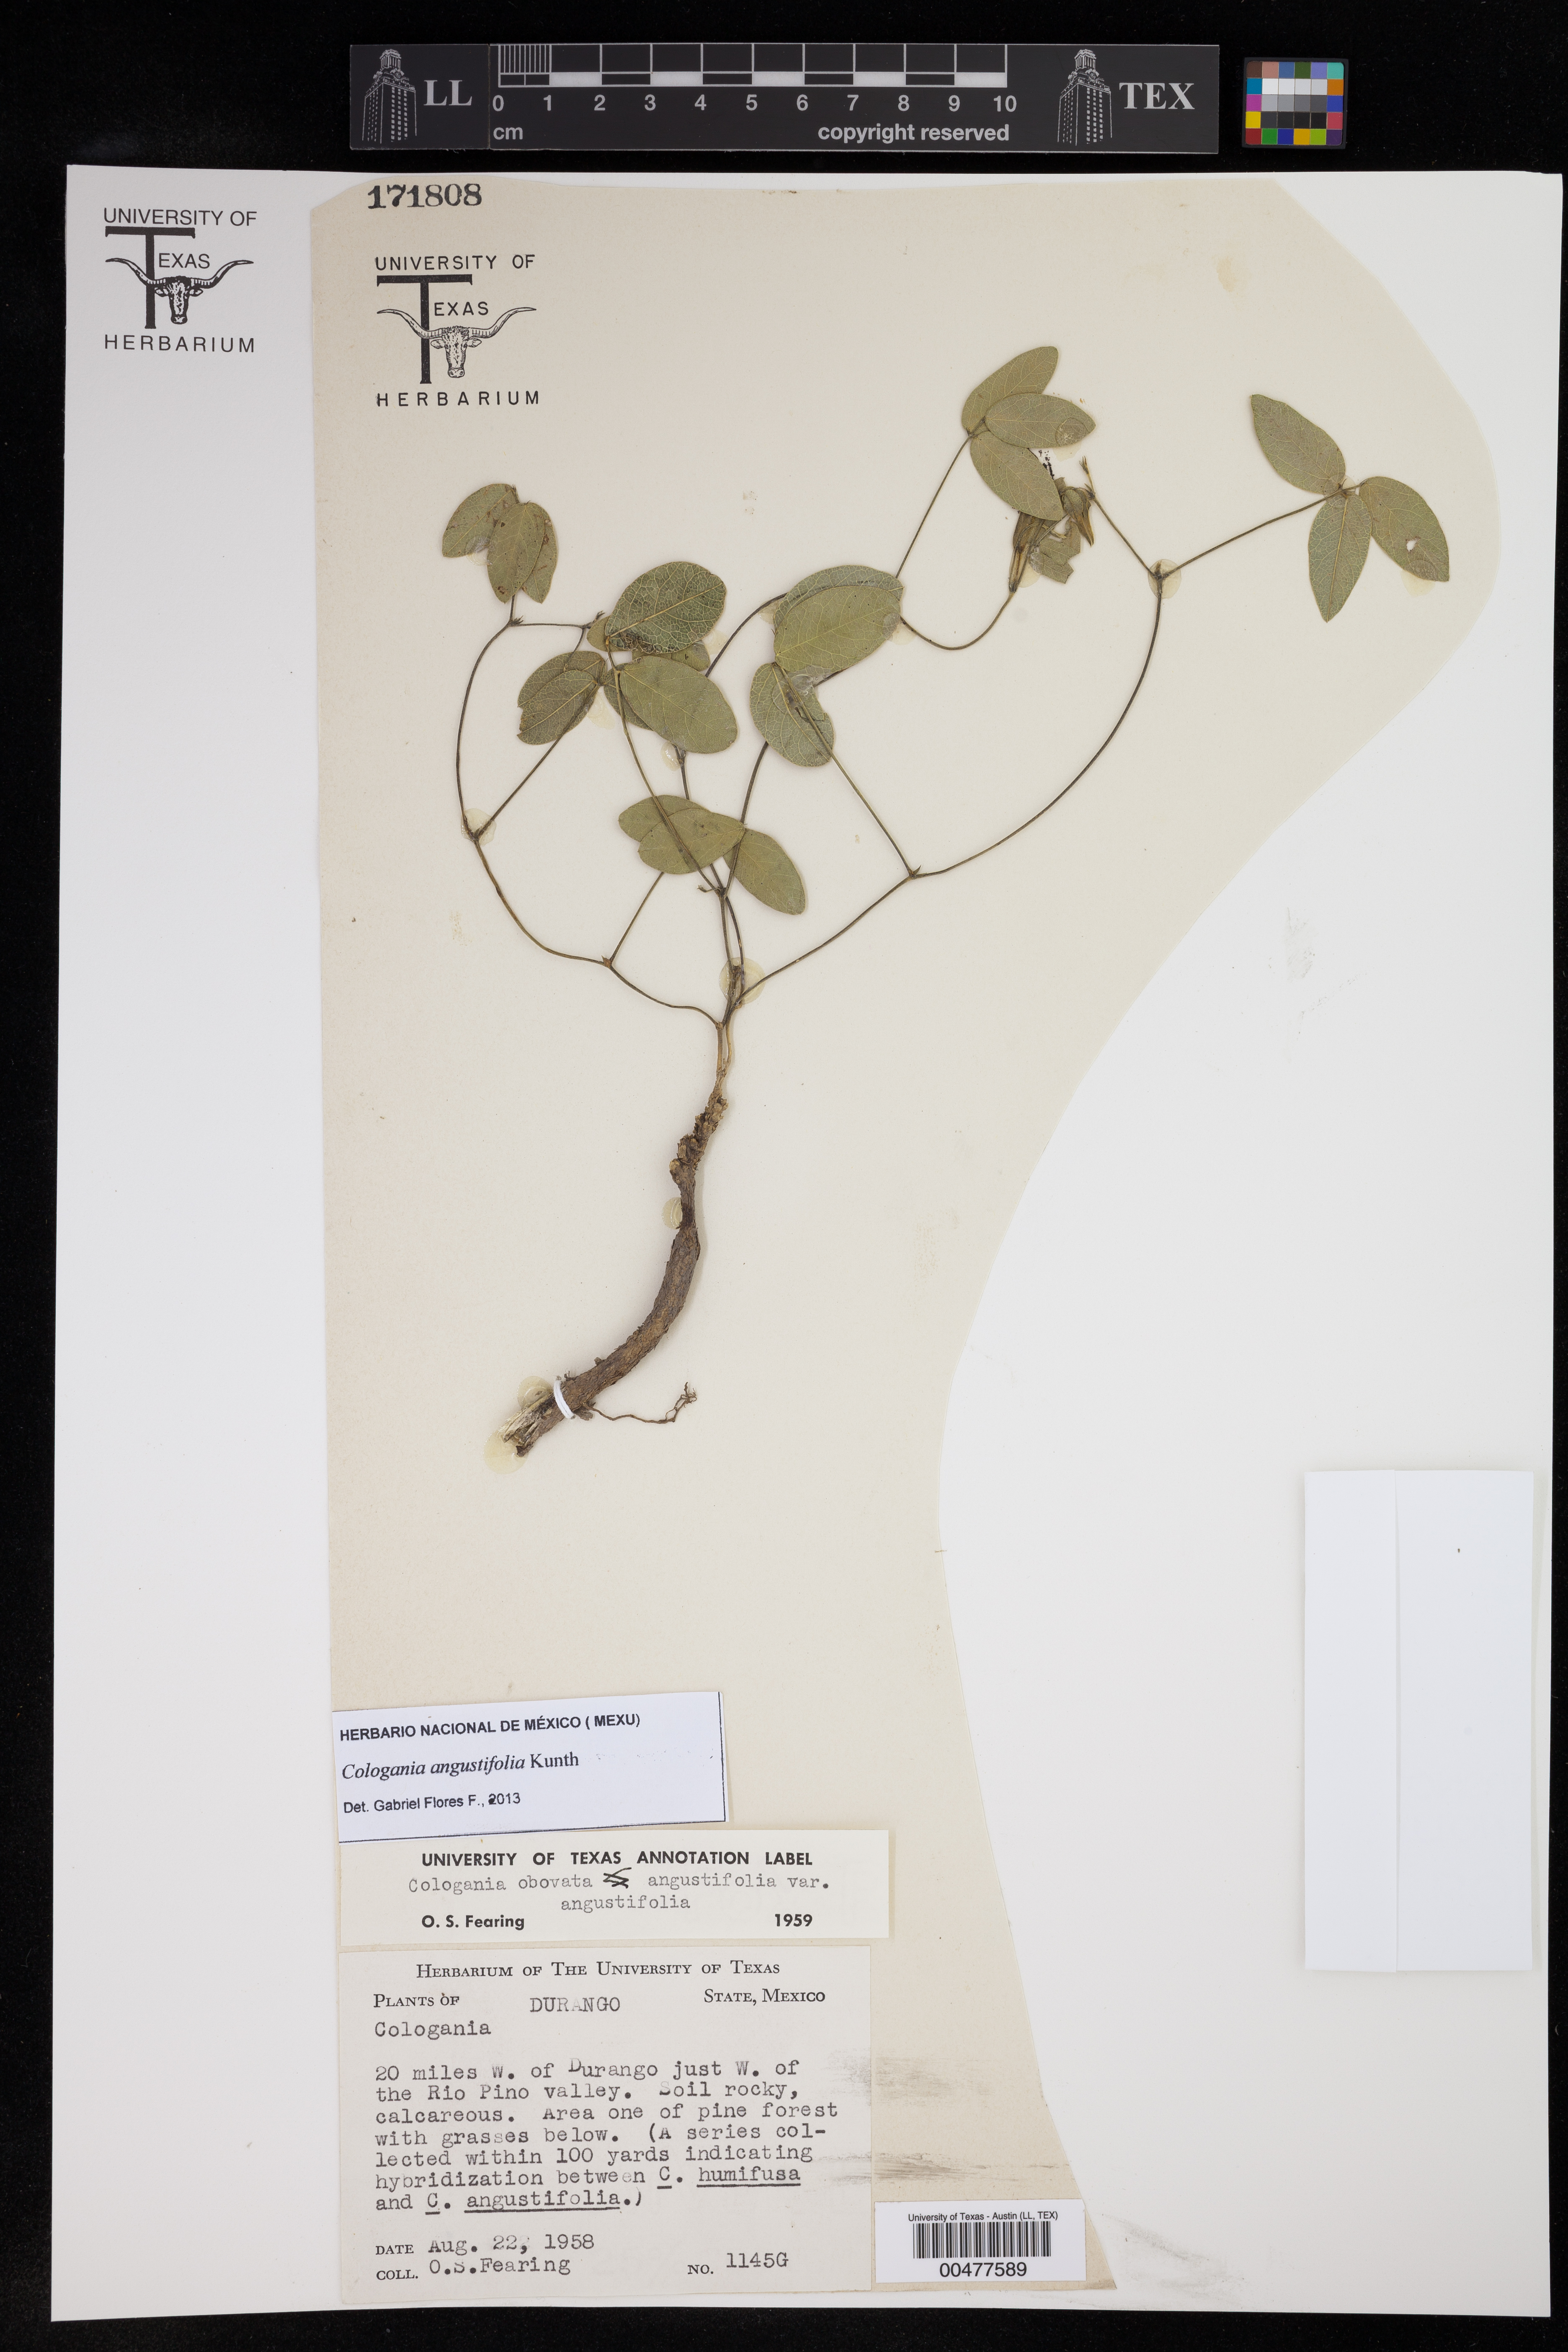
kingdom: Plantae
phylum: Tracheophyta
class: Magnoliopsida
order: Fabales
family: Fabaceae
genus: Cologania
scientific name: Cologania angustifolia
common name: Longleaf cologania
